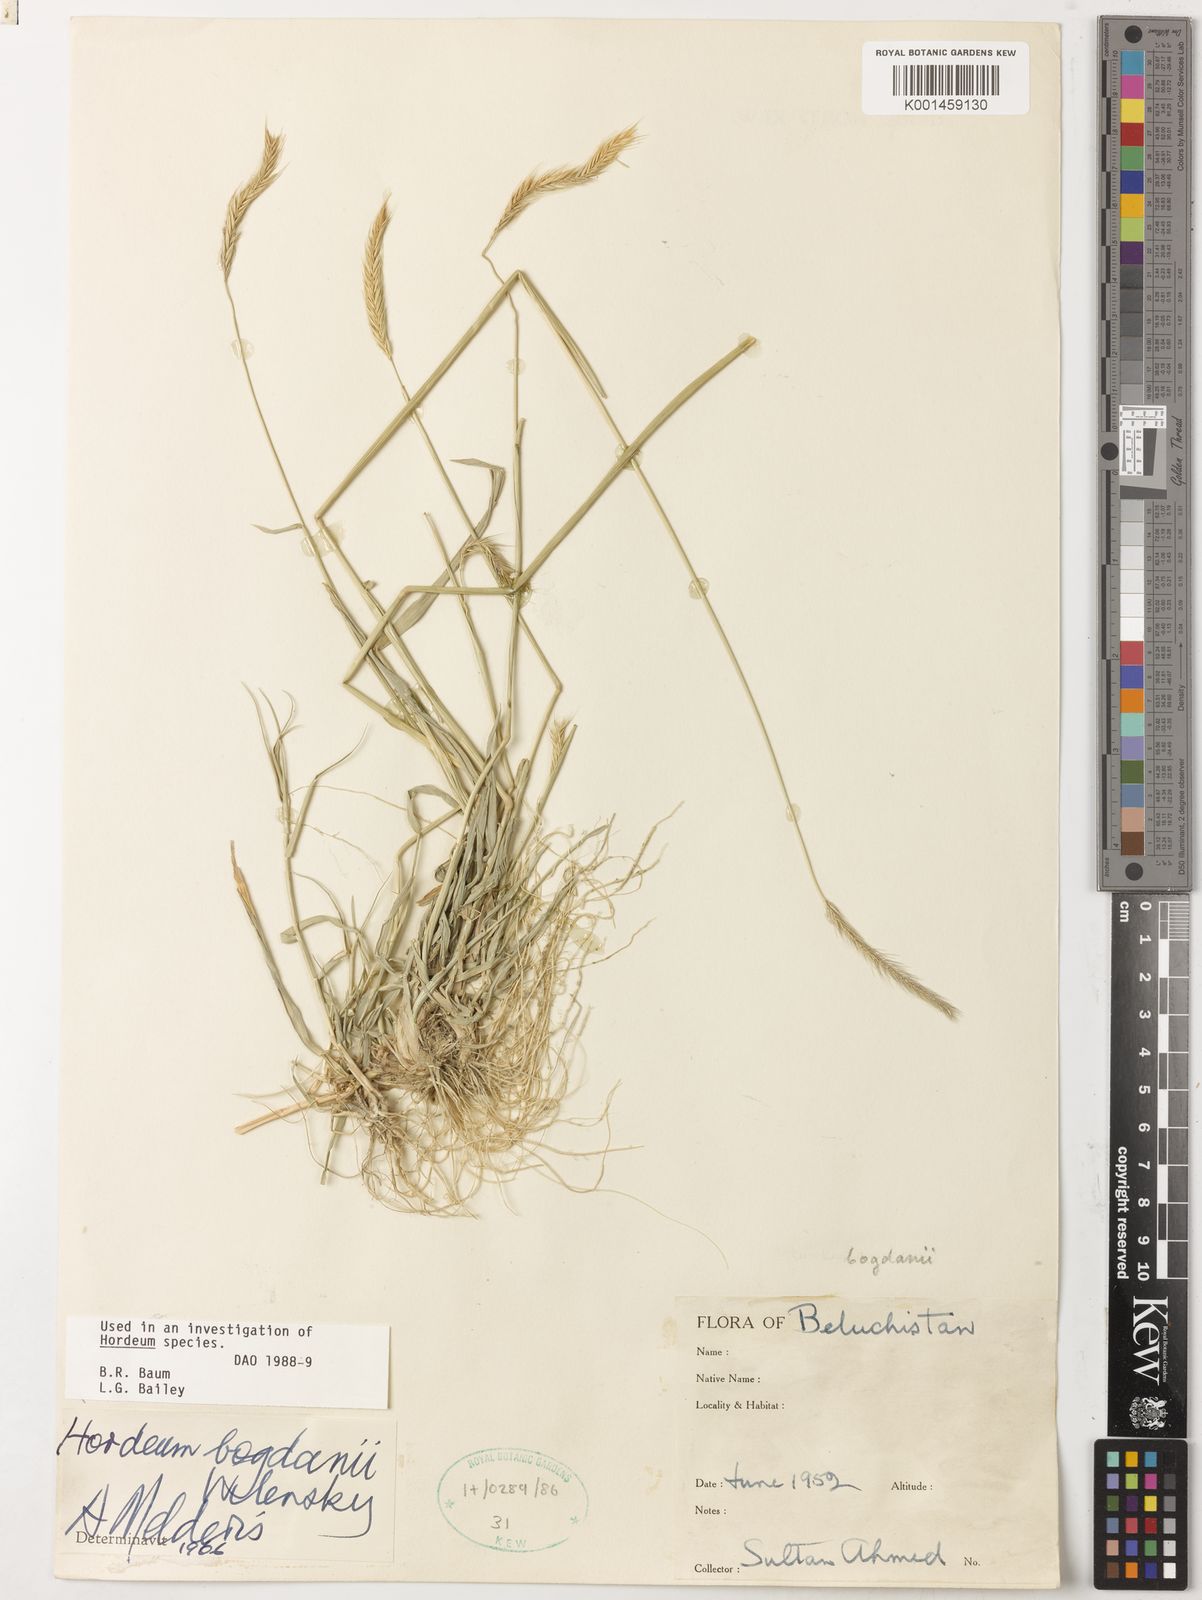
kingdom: Plantae
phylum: Tracheophyta
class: Liliopsida
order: Poales
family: Poaceae
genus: Hordeum
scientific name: Hordeum bogdanii
